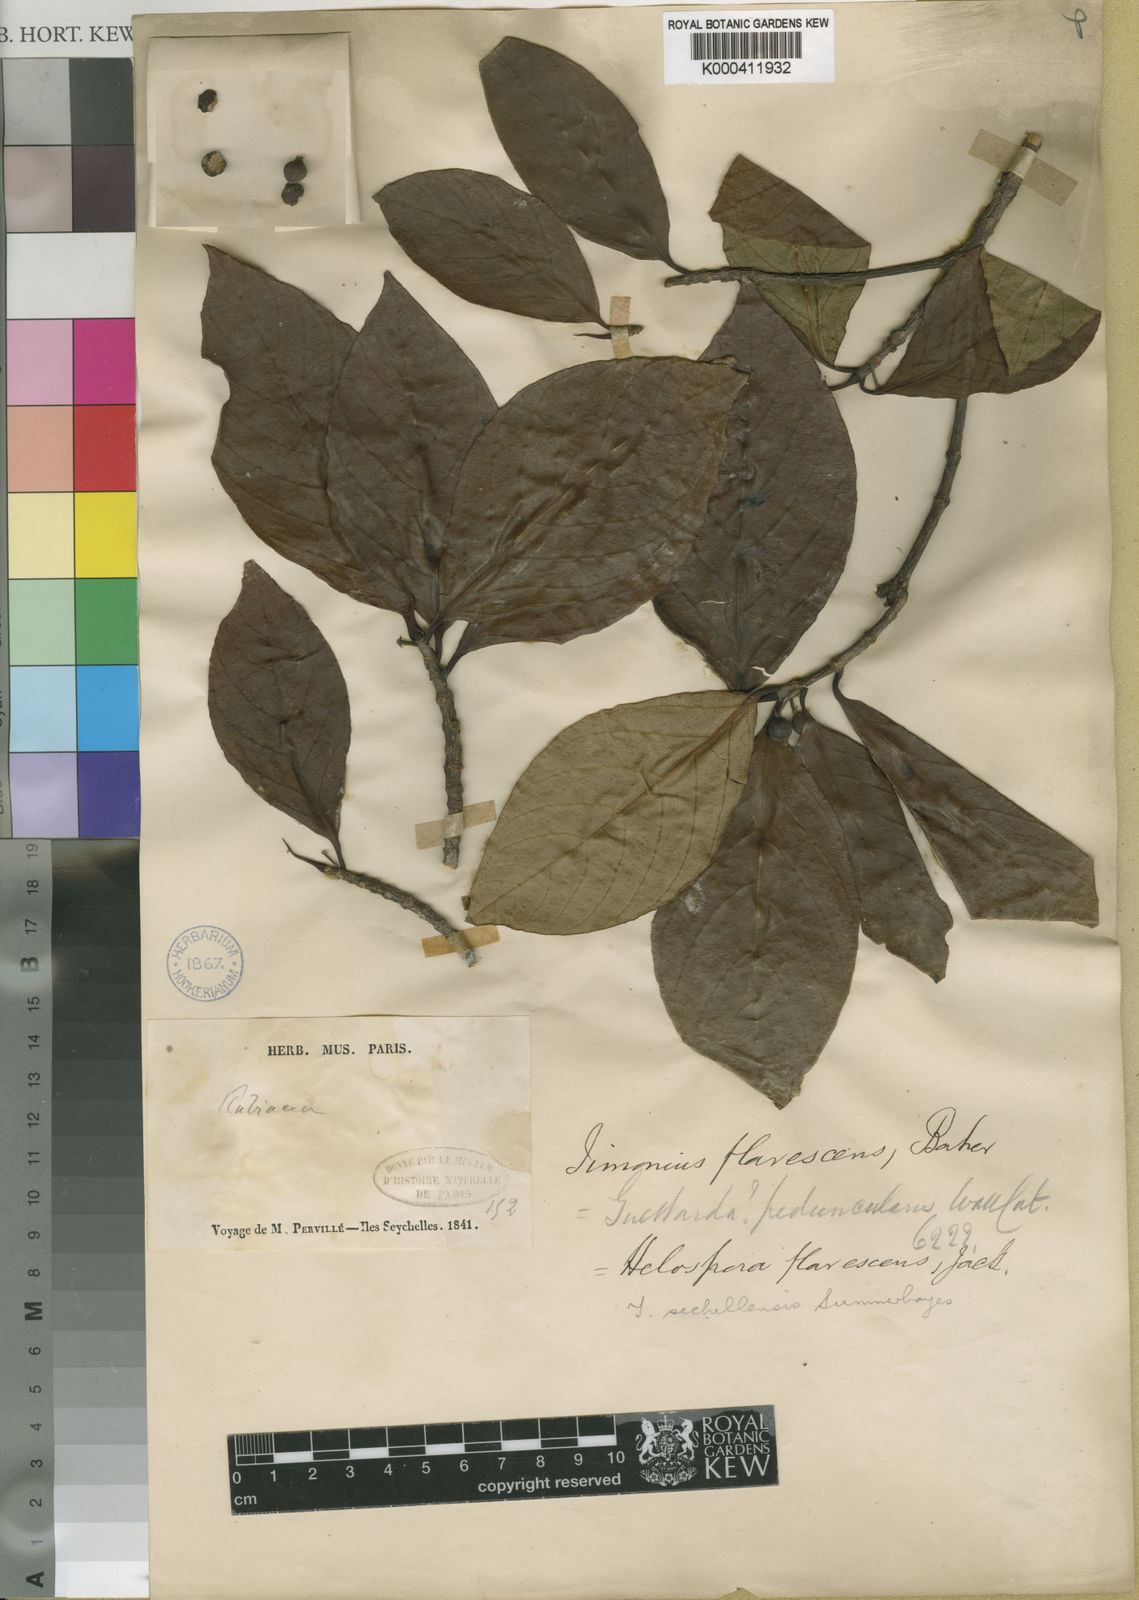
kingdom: Plantae
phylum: Tracheophyta
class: Magnoliopsida
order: Gentianales
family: Rubiaceae
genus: Timonius
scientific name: Timonius flavescens
